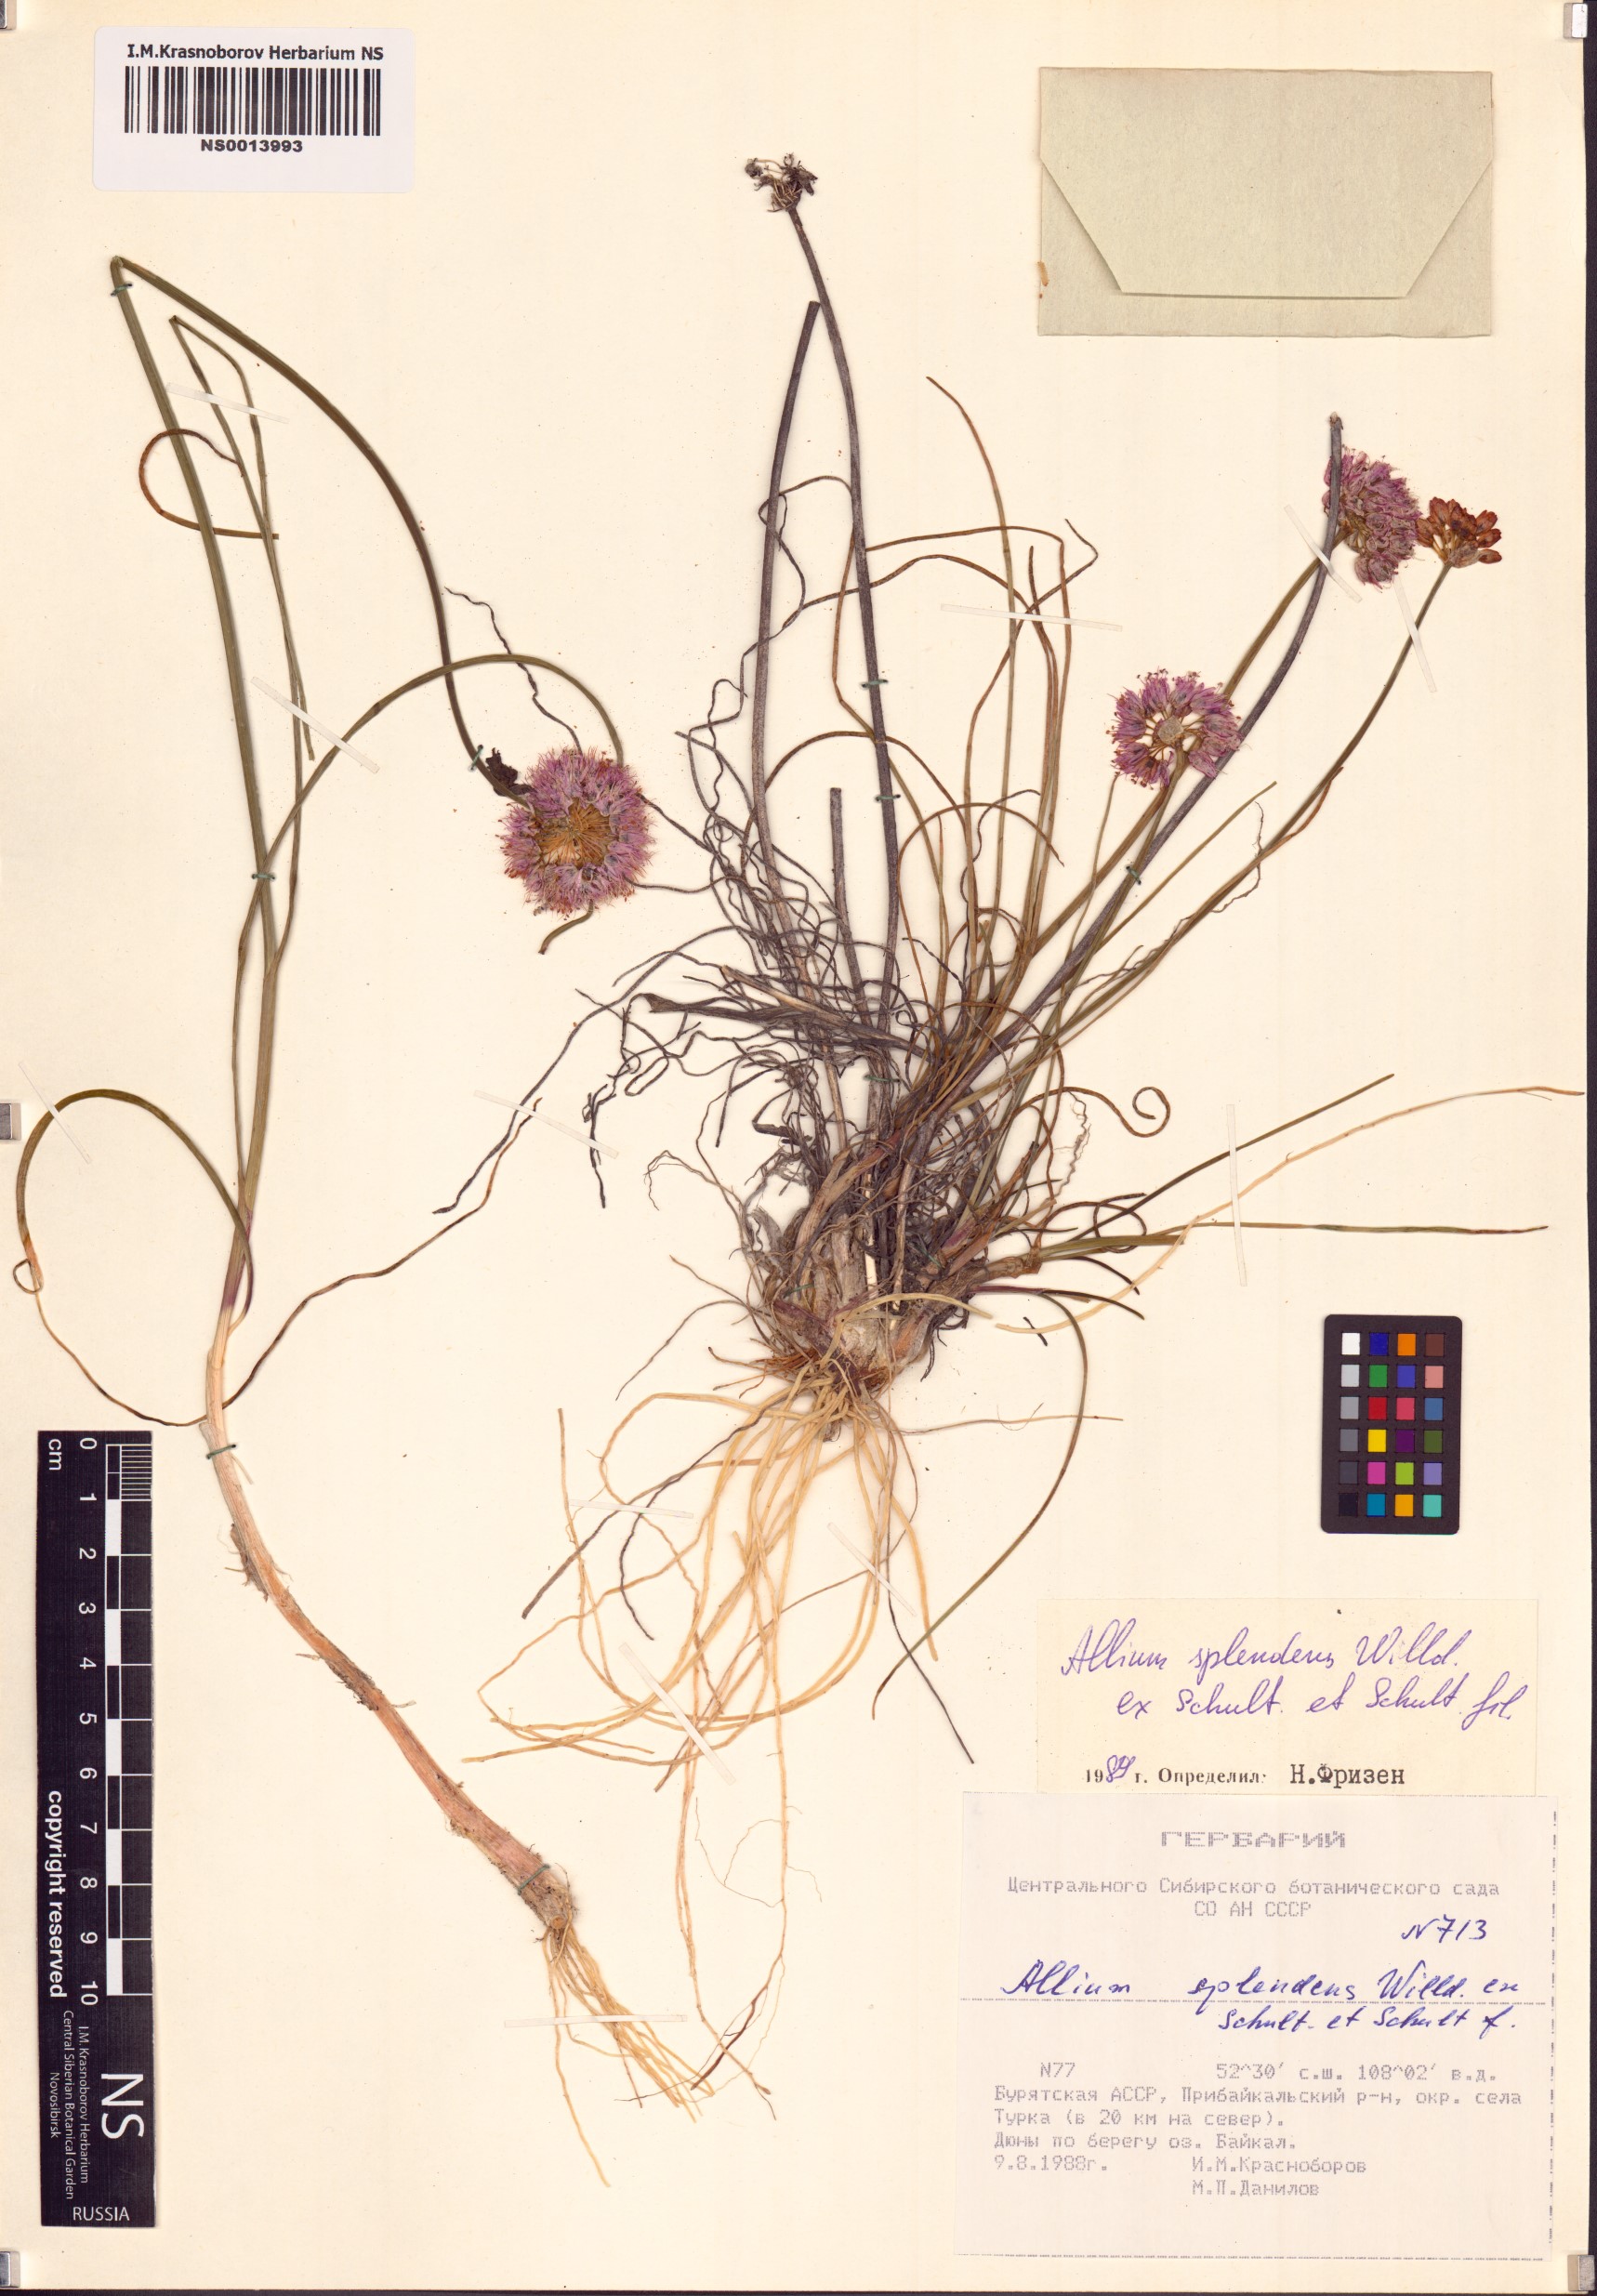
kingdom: Plantae
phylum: Tracheophyta
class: Liliopsida
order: Asparagales
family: Amaryllidaceae
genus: Allium
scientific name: Allium splendens
